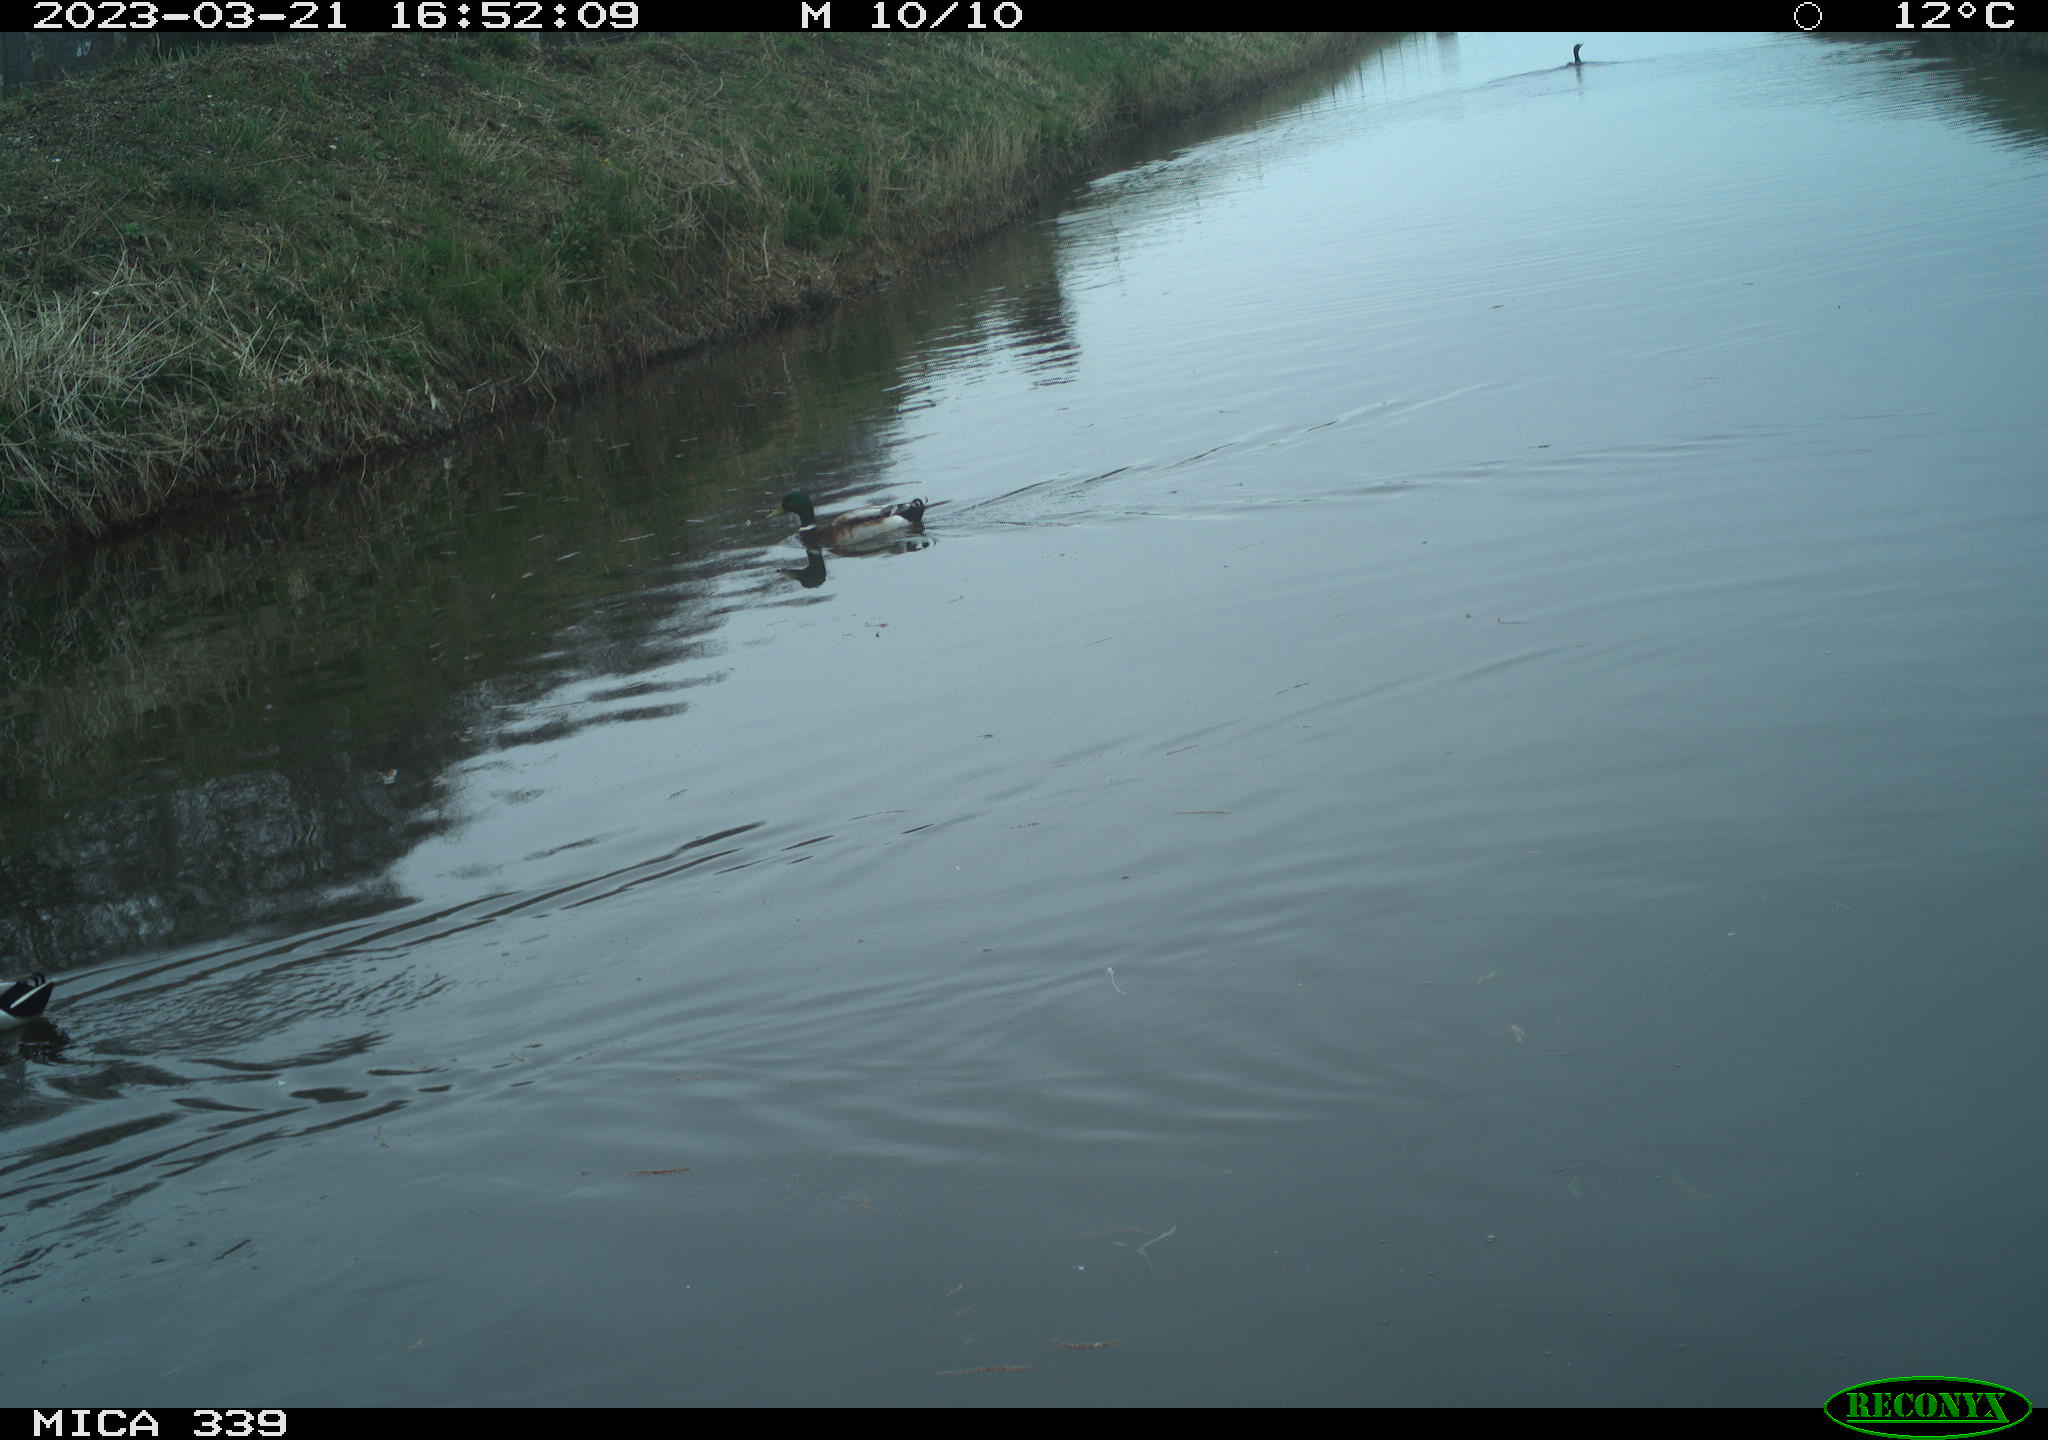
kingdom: Animalia
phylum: Chordata
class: Aves
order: Anseriformes
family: Anatidae
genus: Anas
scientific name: Anas
